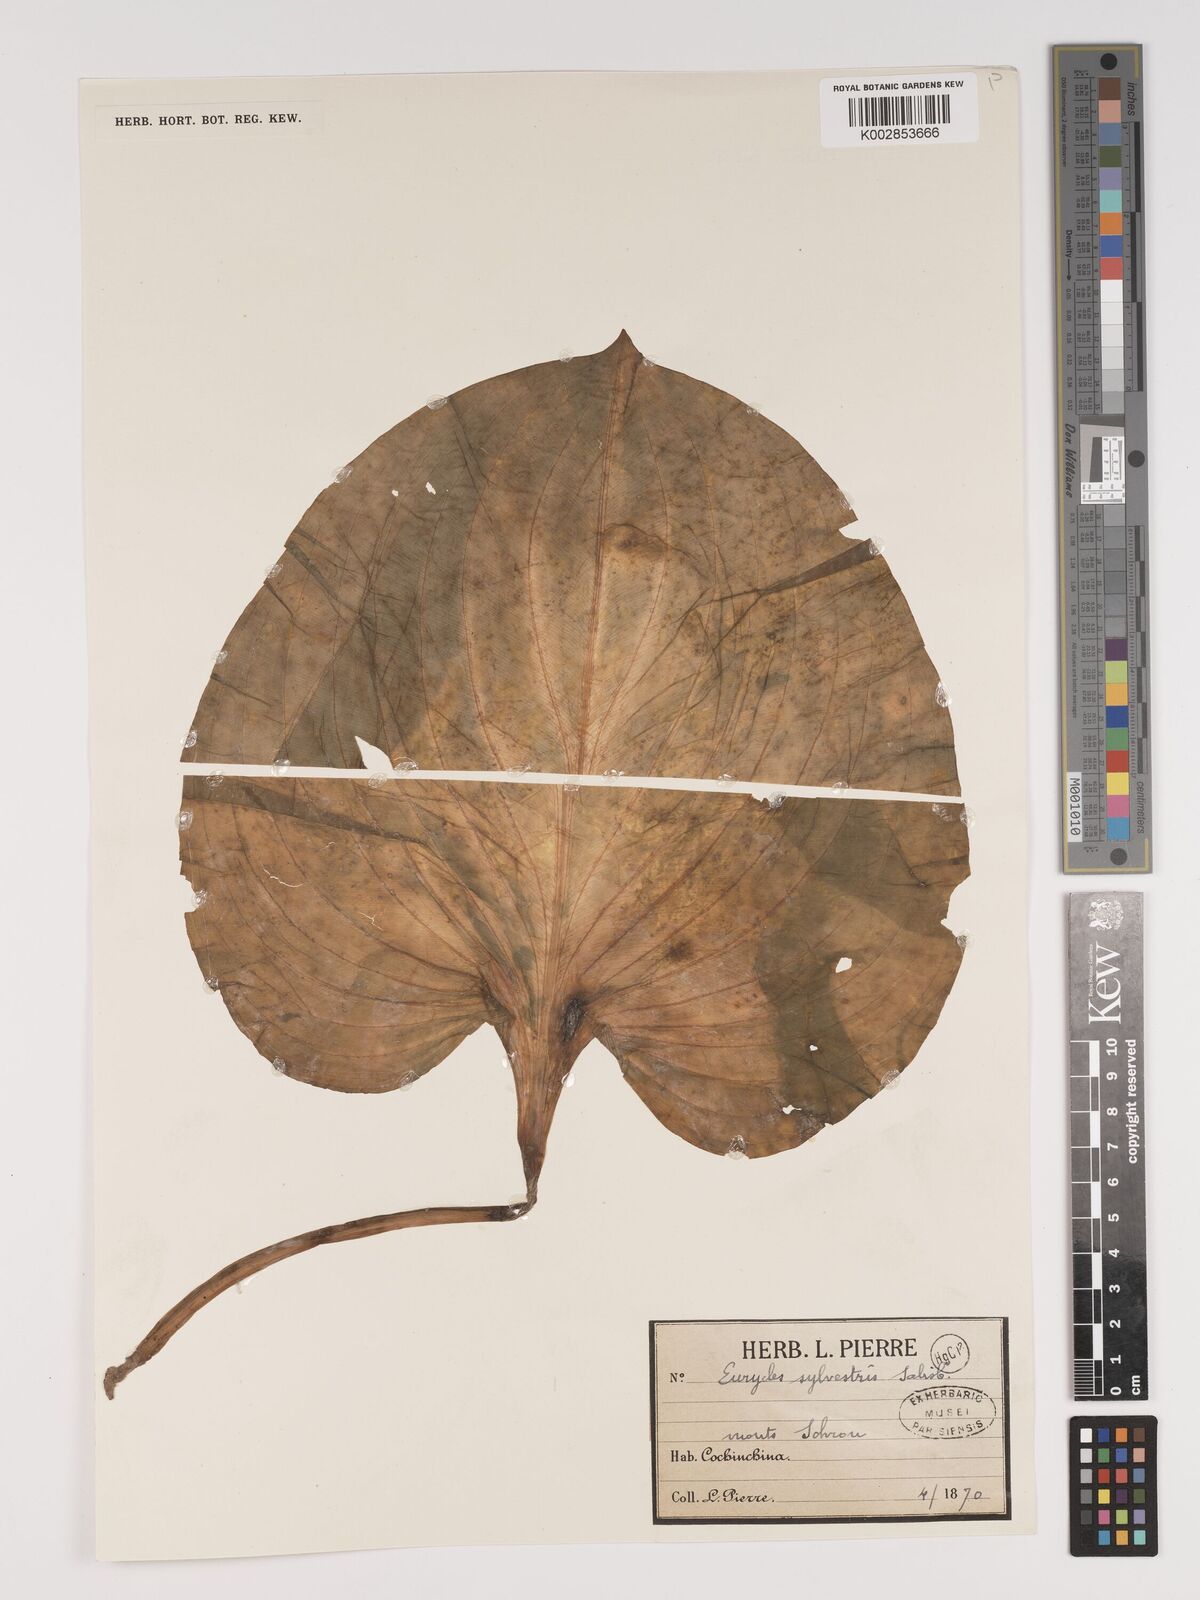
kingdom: Plantae
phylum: Tracheophyta
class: Liliopsida
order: Asparagales
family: Amaryllidaceae
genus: Proiphys
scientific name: Proiphys amboinensis
